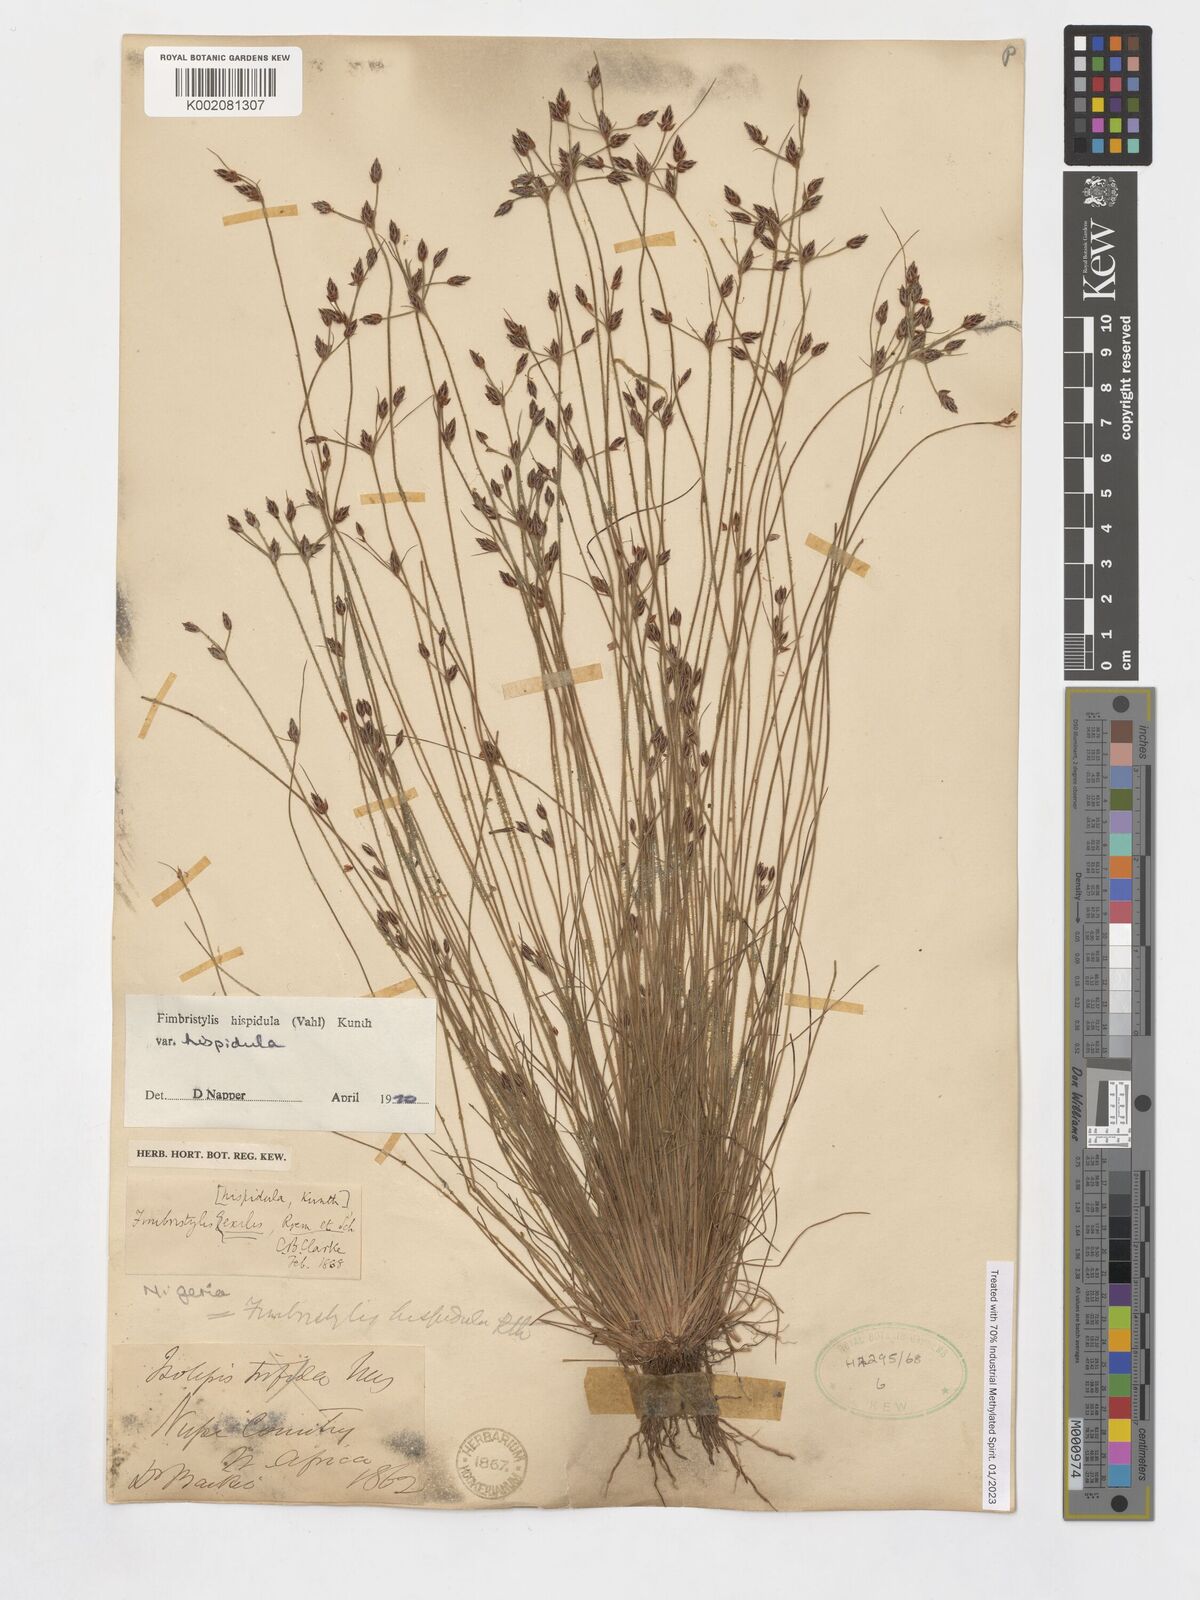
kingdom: Plantae
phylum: Tracheophyta
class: Liliopsida
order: Poales
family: Cyperaceae
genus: Bulbostylis
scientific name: Bulbostylis hispidula
